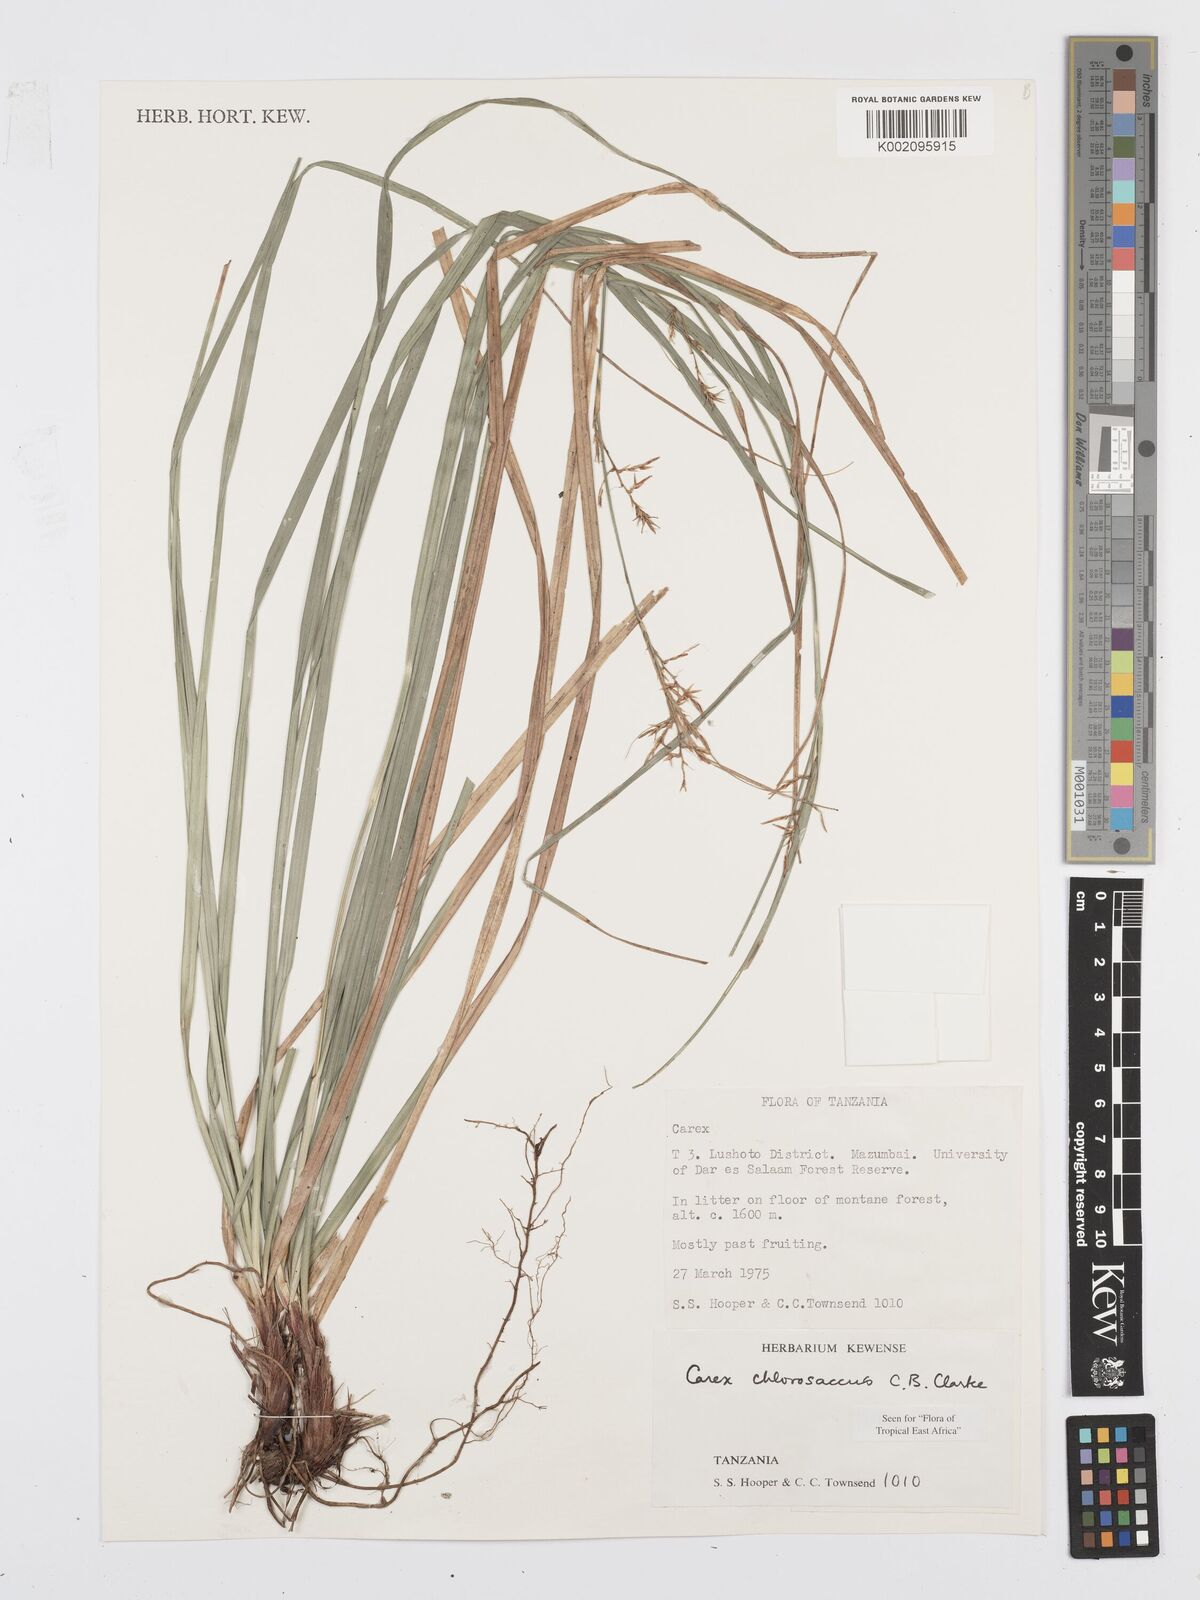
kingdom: Plantae
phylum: Tracheophyta
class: Liliopsida
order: Poales
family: Cyperaceae
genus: Carex
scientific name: Carex chlorosaccus
